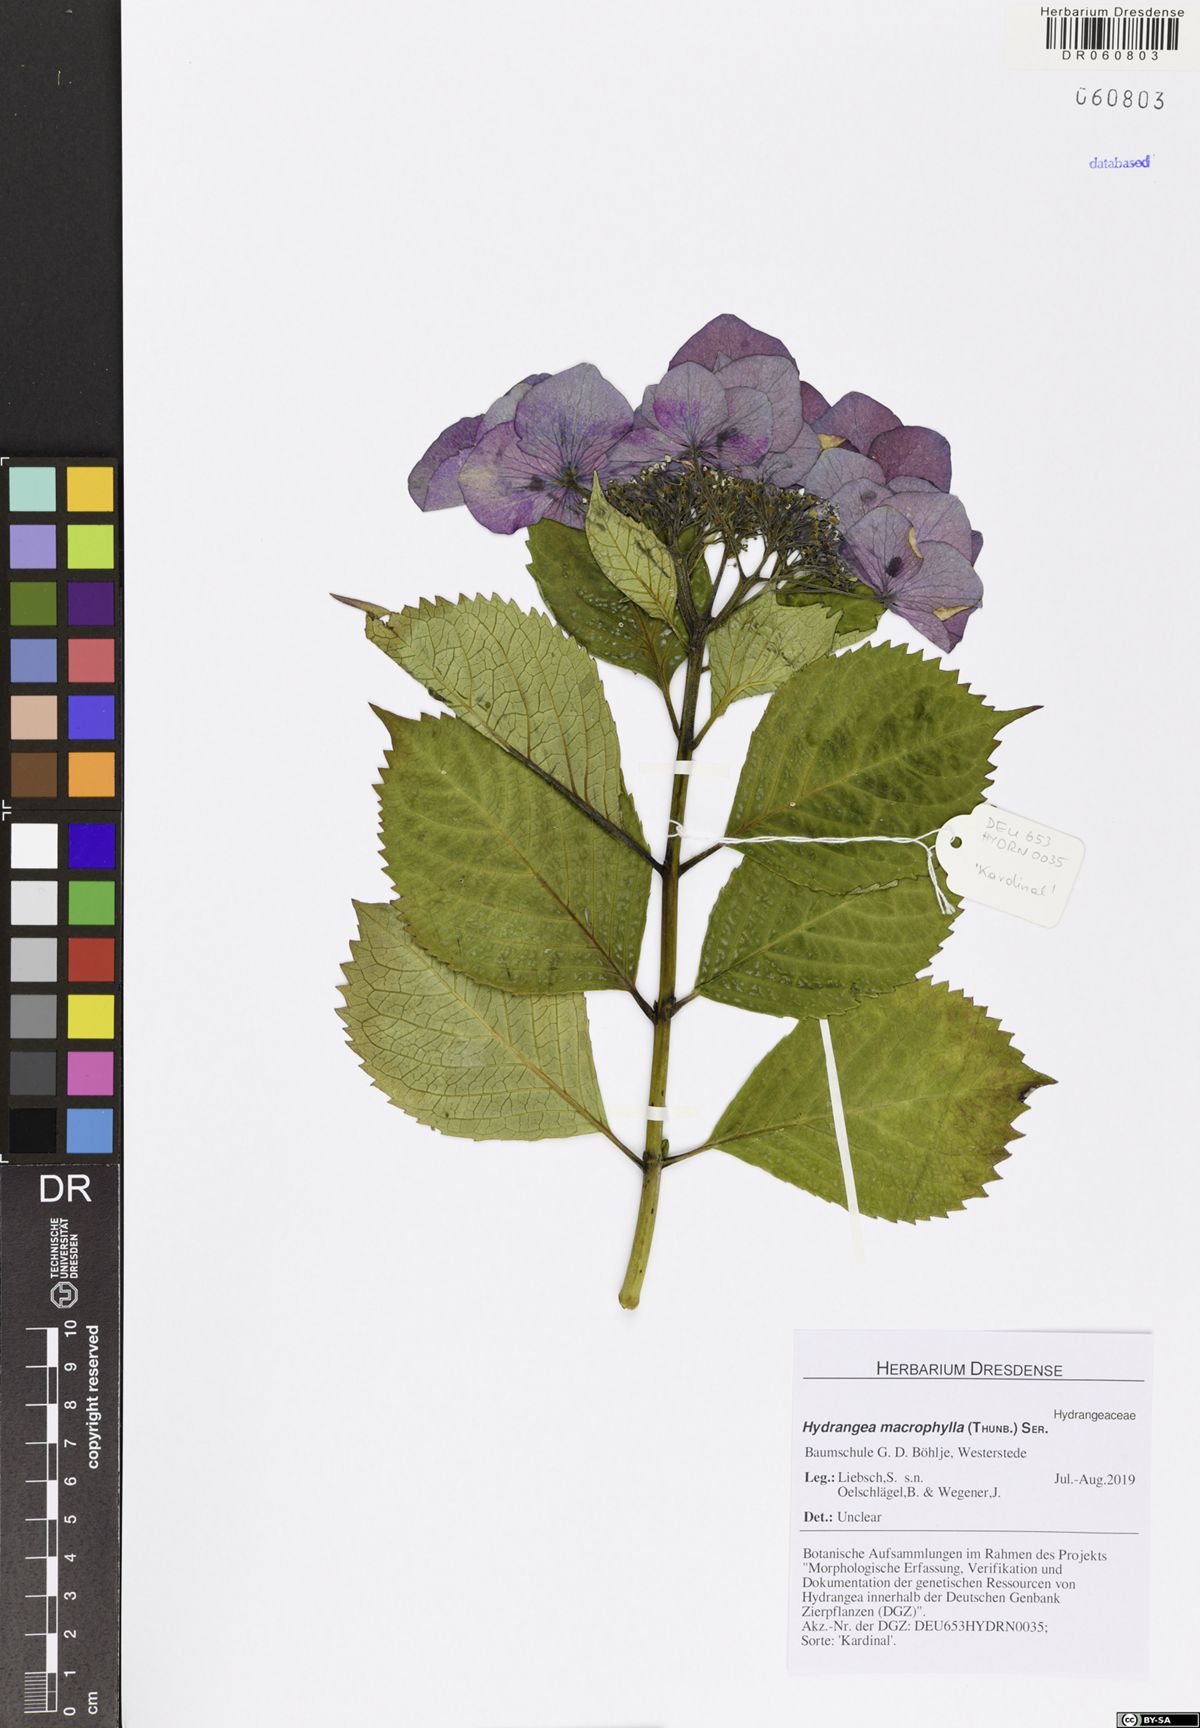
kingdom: Plantae
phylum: Tracheophyta
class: Magnoliopsida
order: Cornales
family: Hydrangeaceae
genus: Hydrangea
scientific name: Hydrangea macrophylla
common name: Hydrangea
